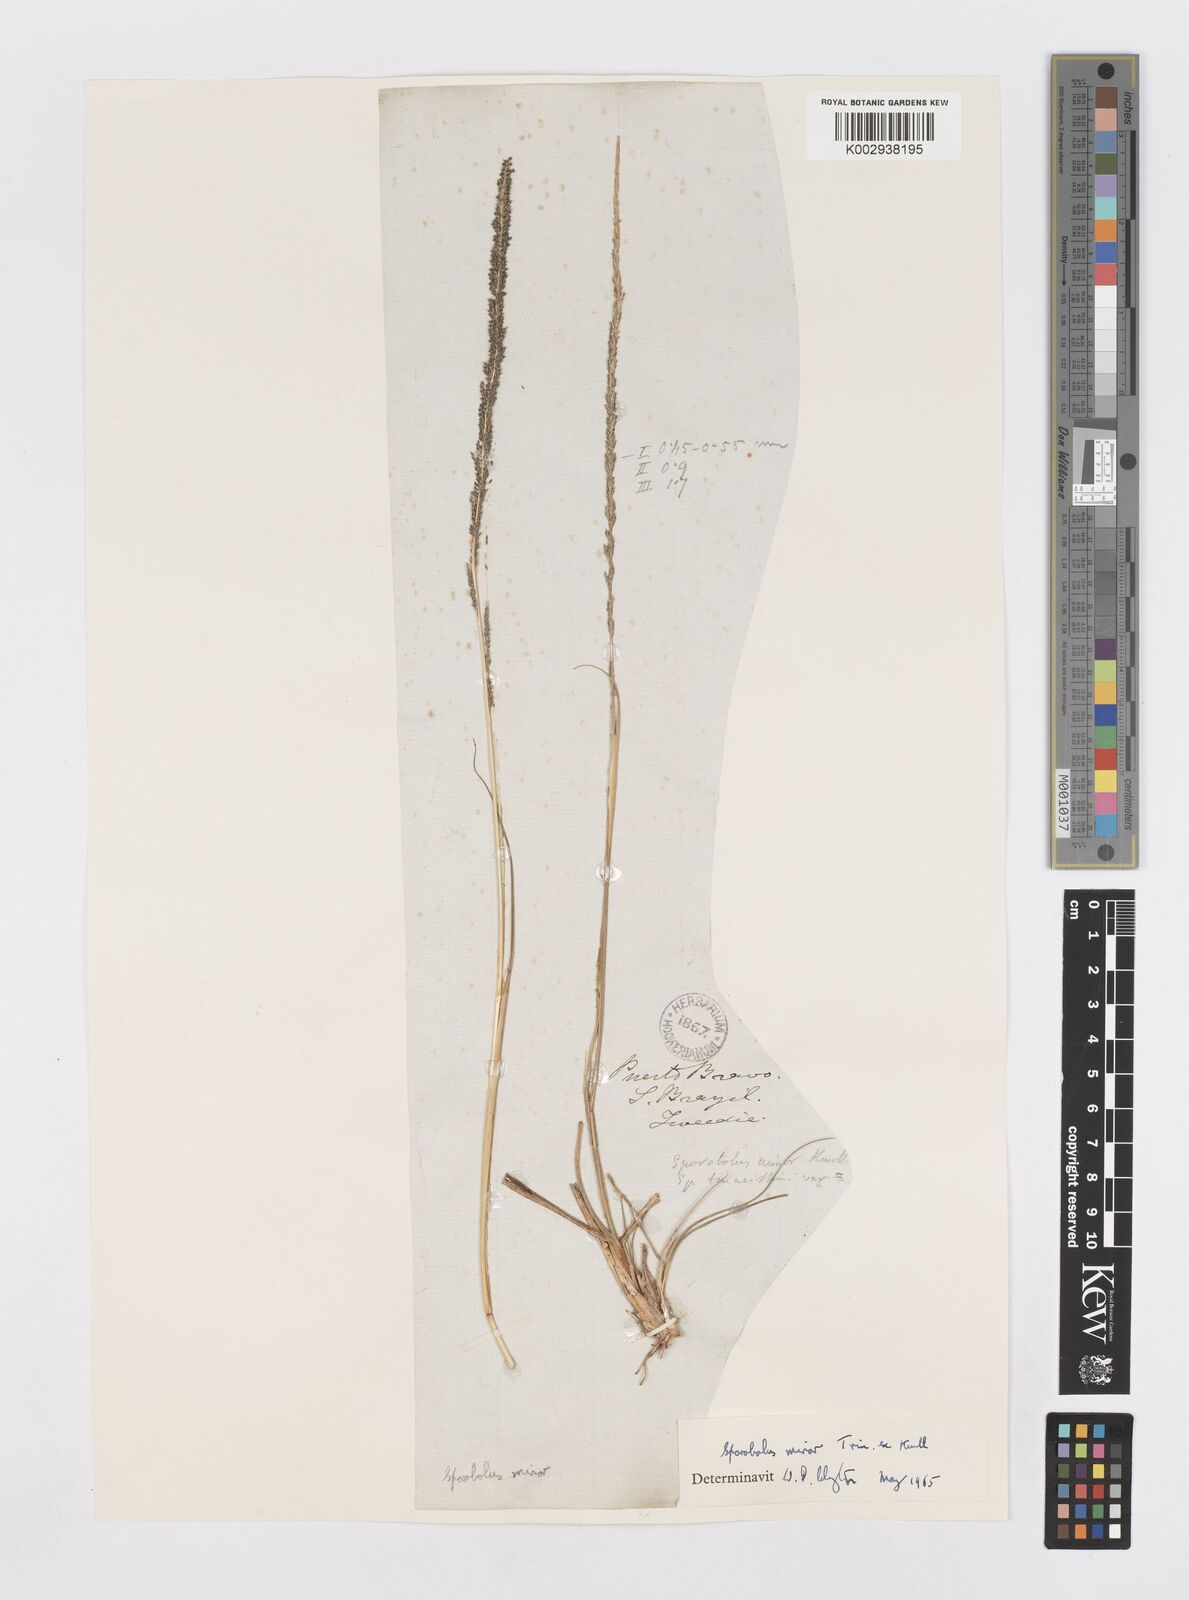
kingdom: Plantae
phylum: Tracheophyta
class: Liliopsida
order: Poales
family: Poaceae
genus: Sporobolus
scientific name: Sporobolus indicus
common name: Smut grass
